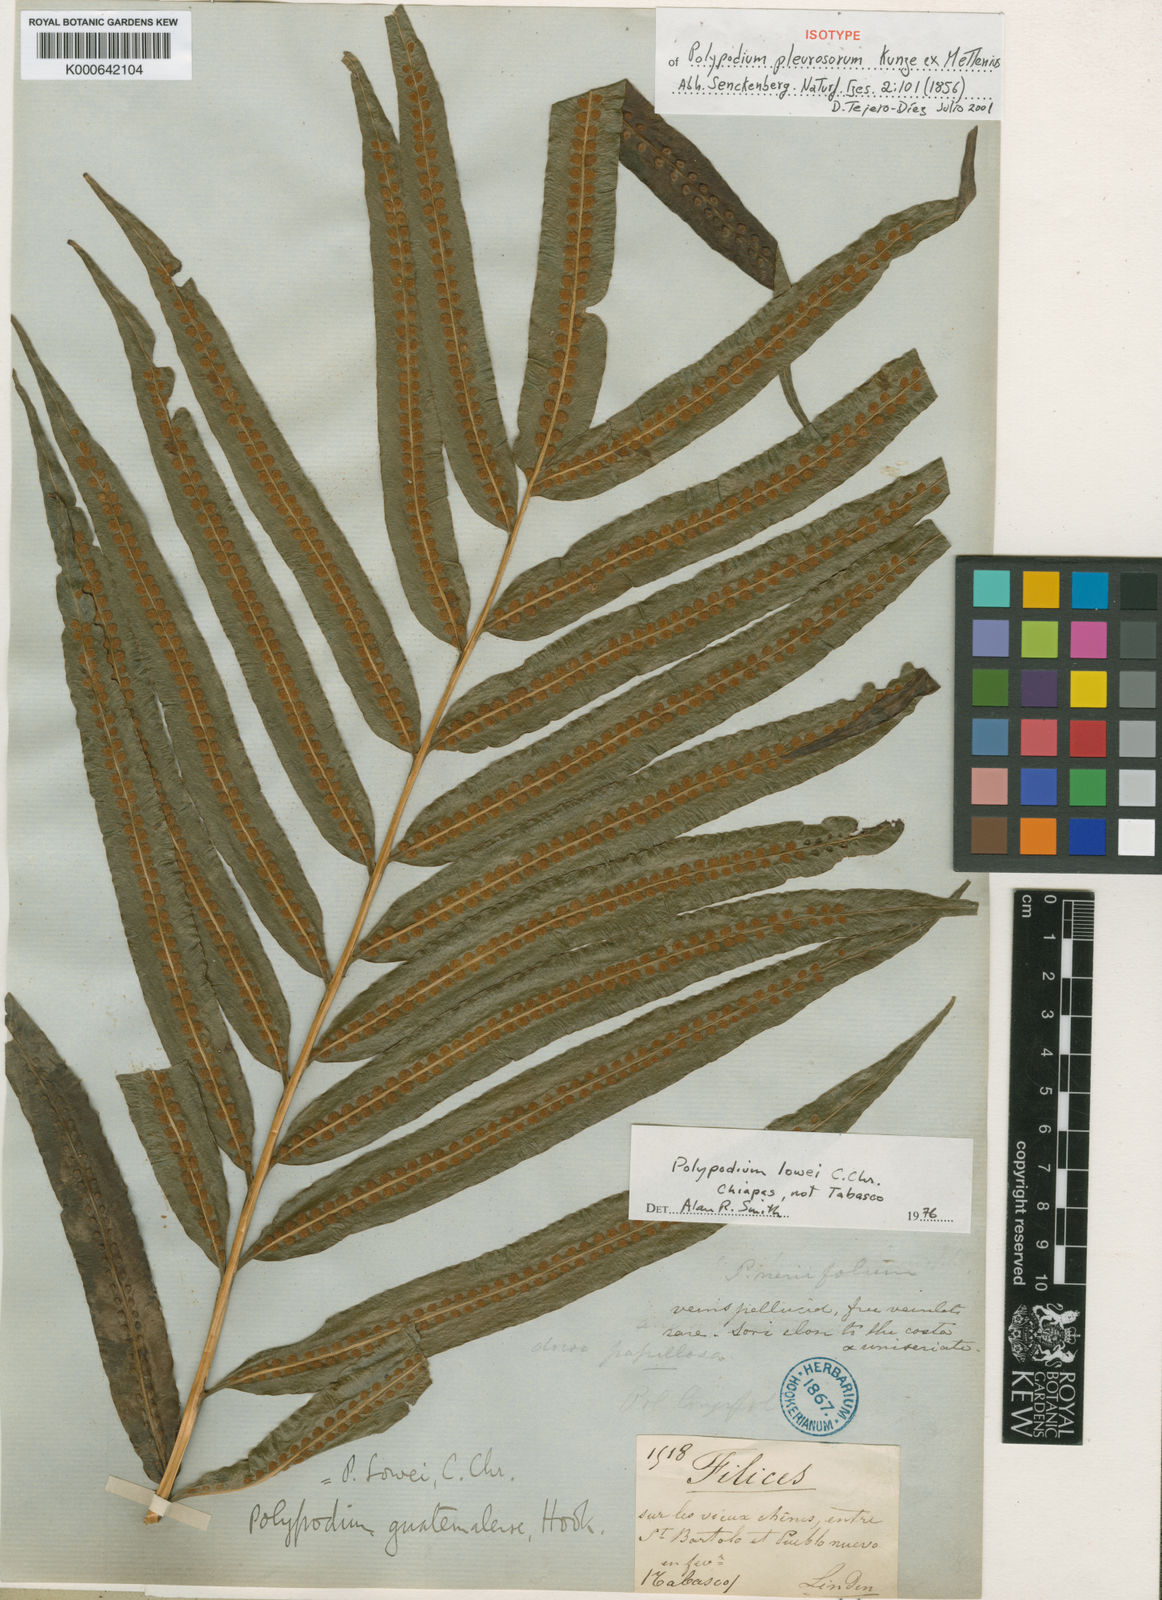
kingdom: Plantae
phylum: Tracheophyta
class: Polypodiopsida
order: Polypodiales
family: Polypodiaceae
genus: Polypodium
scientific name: Polypodium
